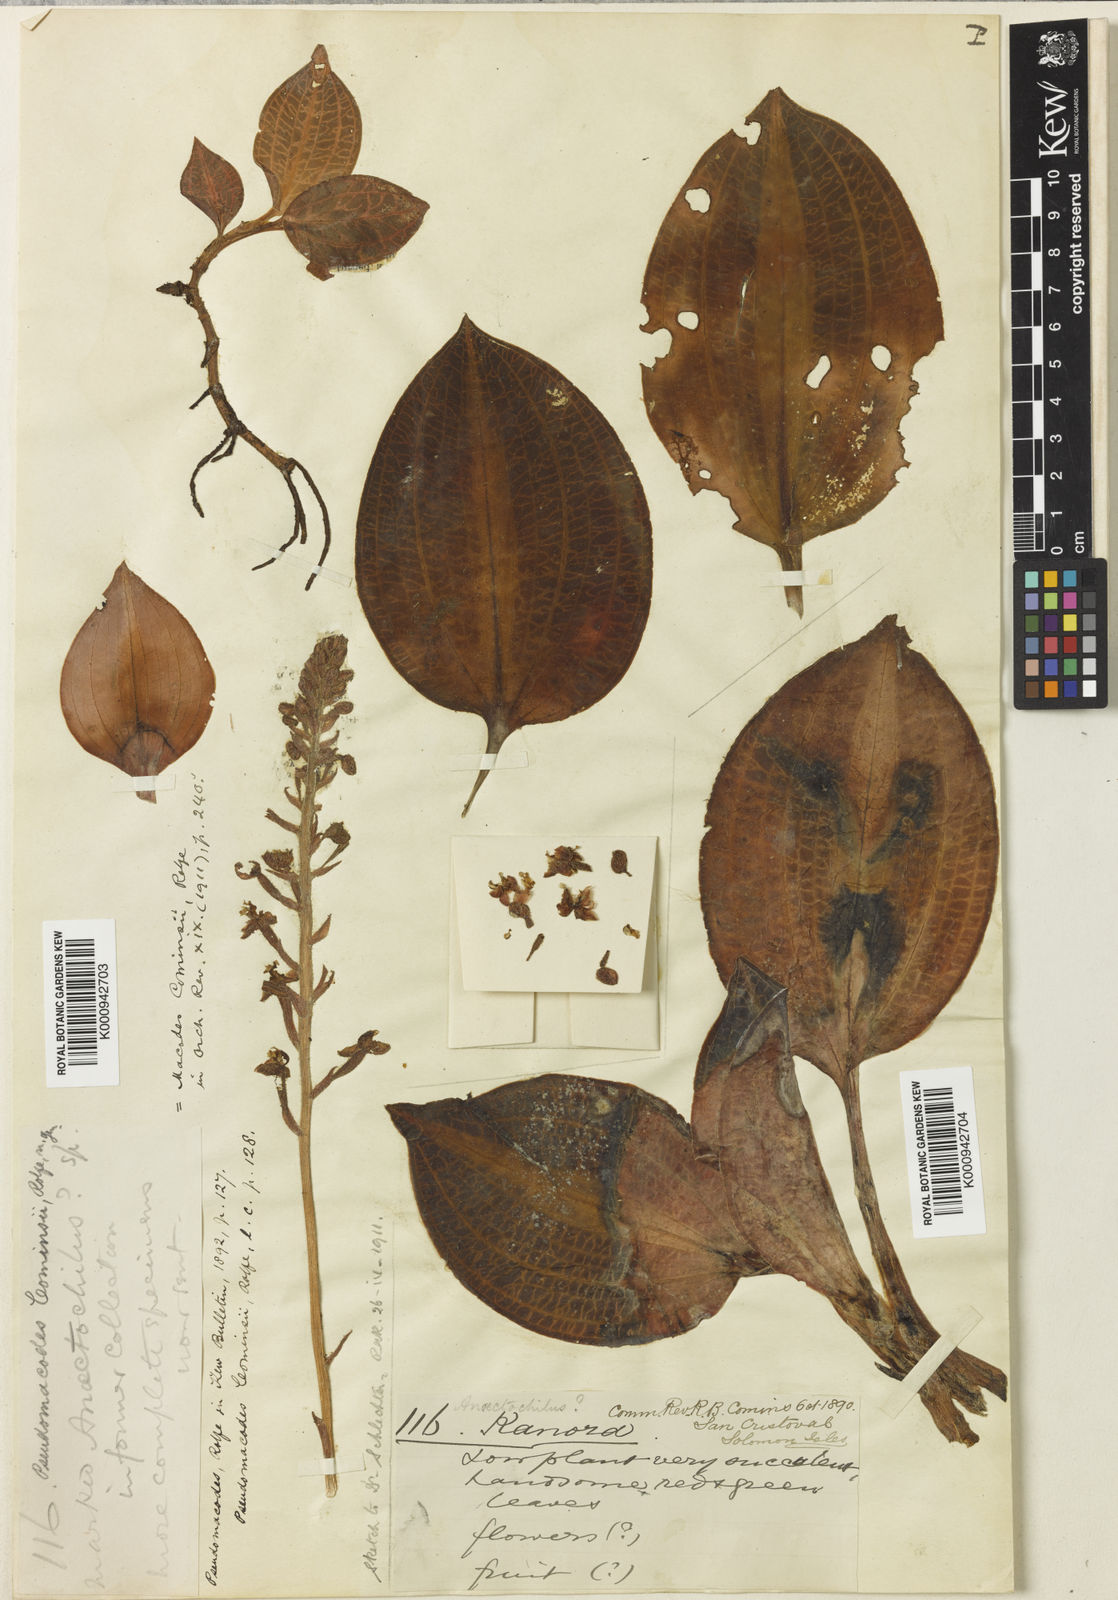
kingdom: Plantae
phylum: Tracheophyta
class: Liliopsida
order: Asparagales
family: Orchidaceae
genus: Macodes
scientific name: Macodes cominsii
